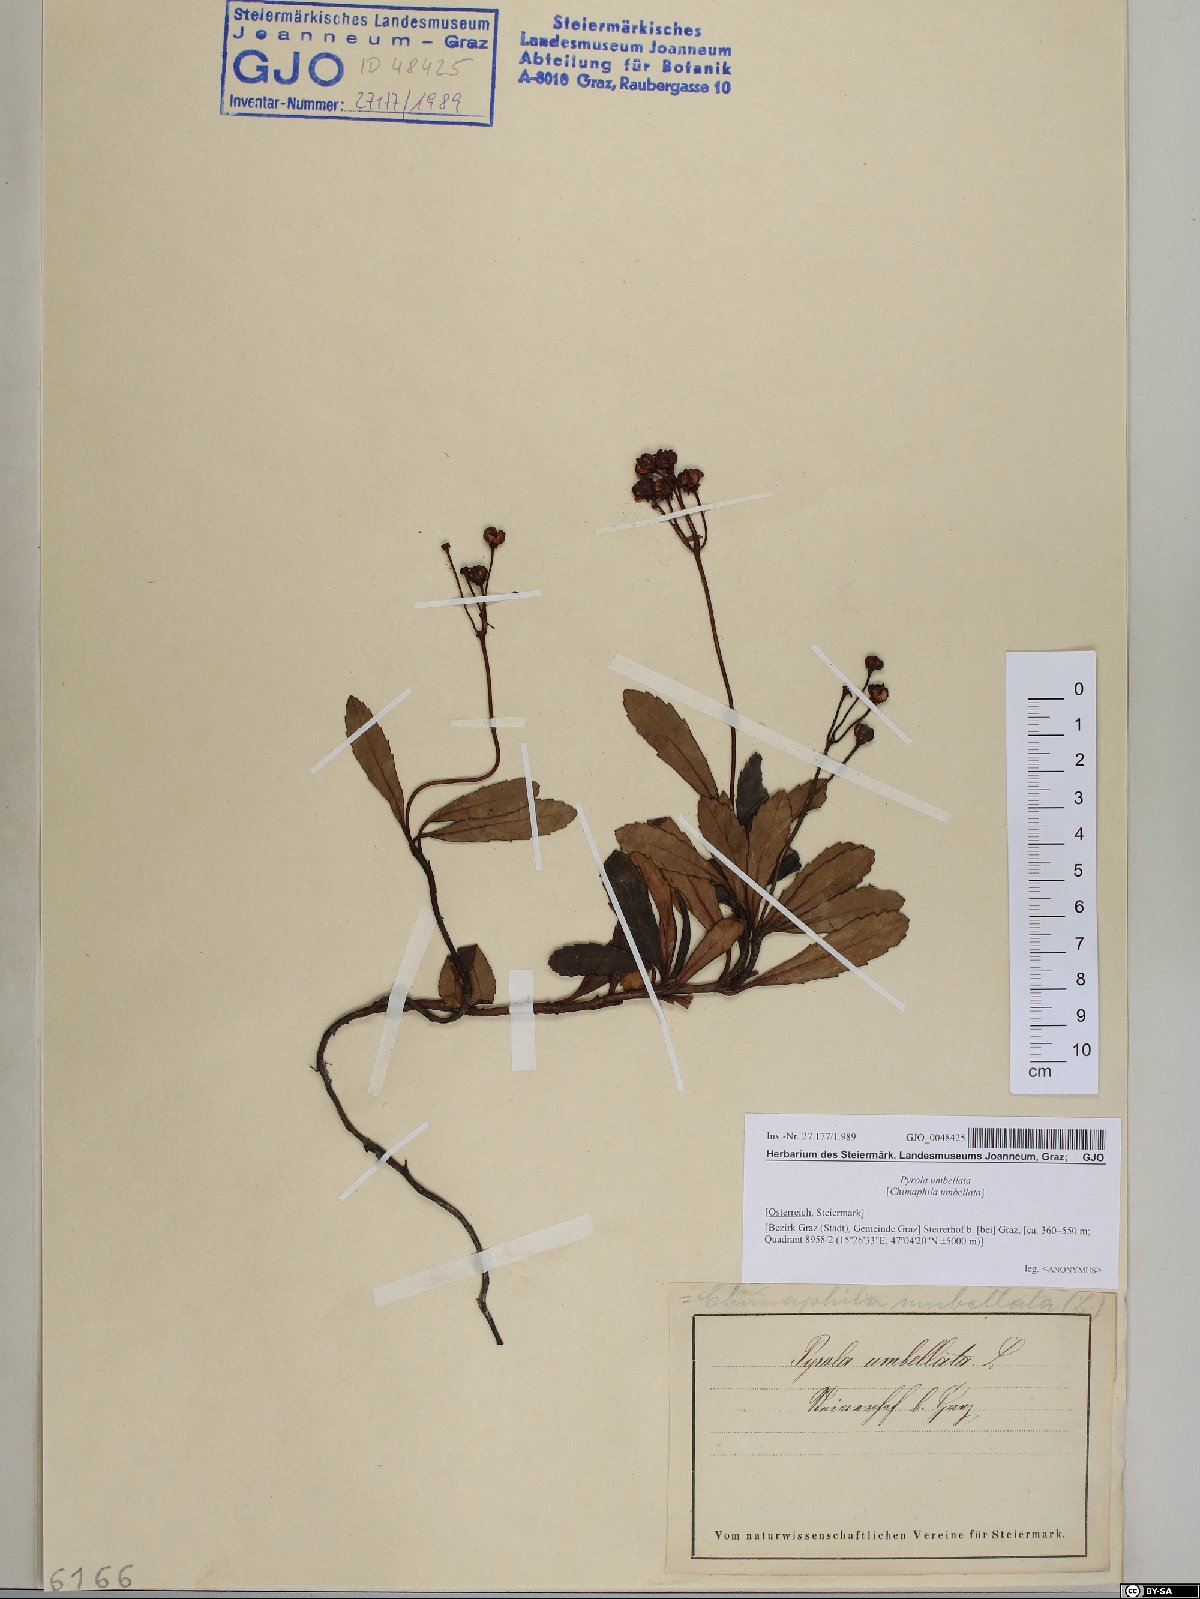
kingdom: Plantae
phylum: Tracheophyta
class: Magnoliopsida
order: Ericales
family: Ericaceae
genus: Chimaphila
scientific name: Chimaphila umbellata
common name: Pipsissewa
